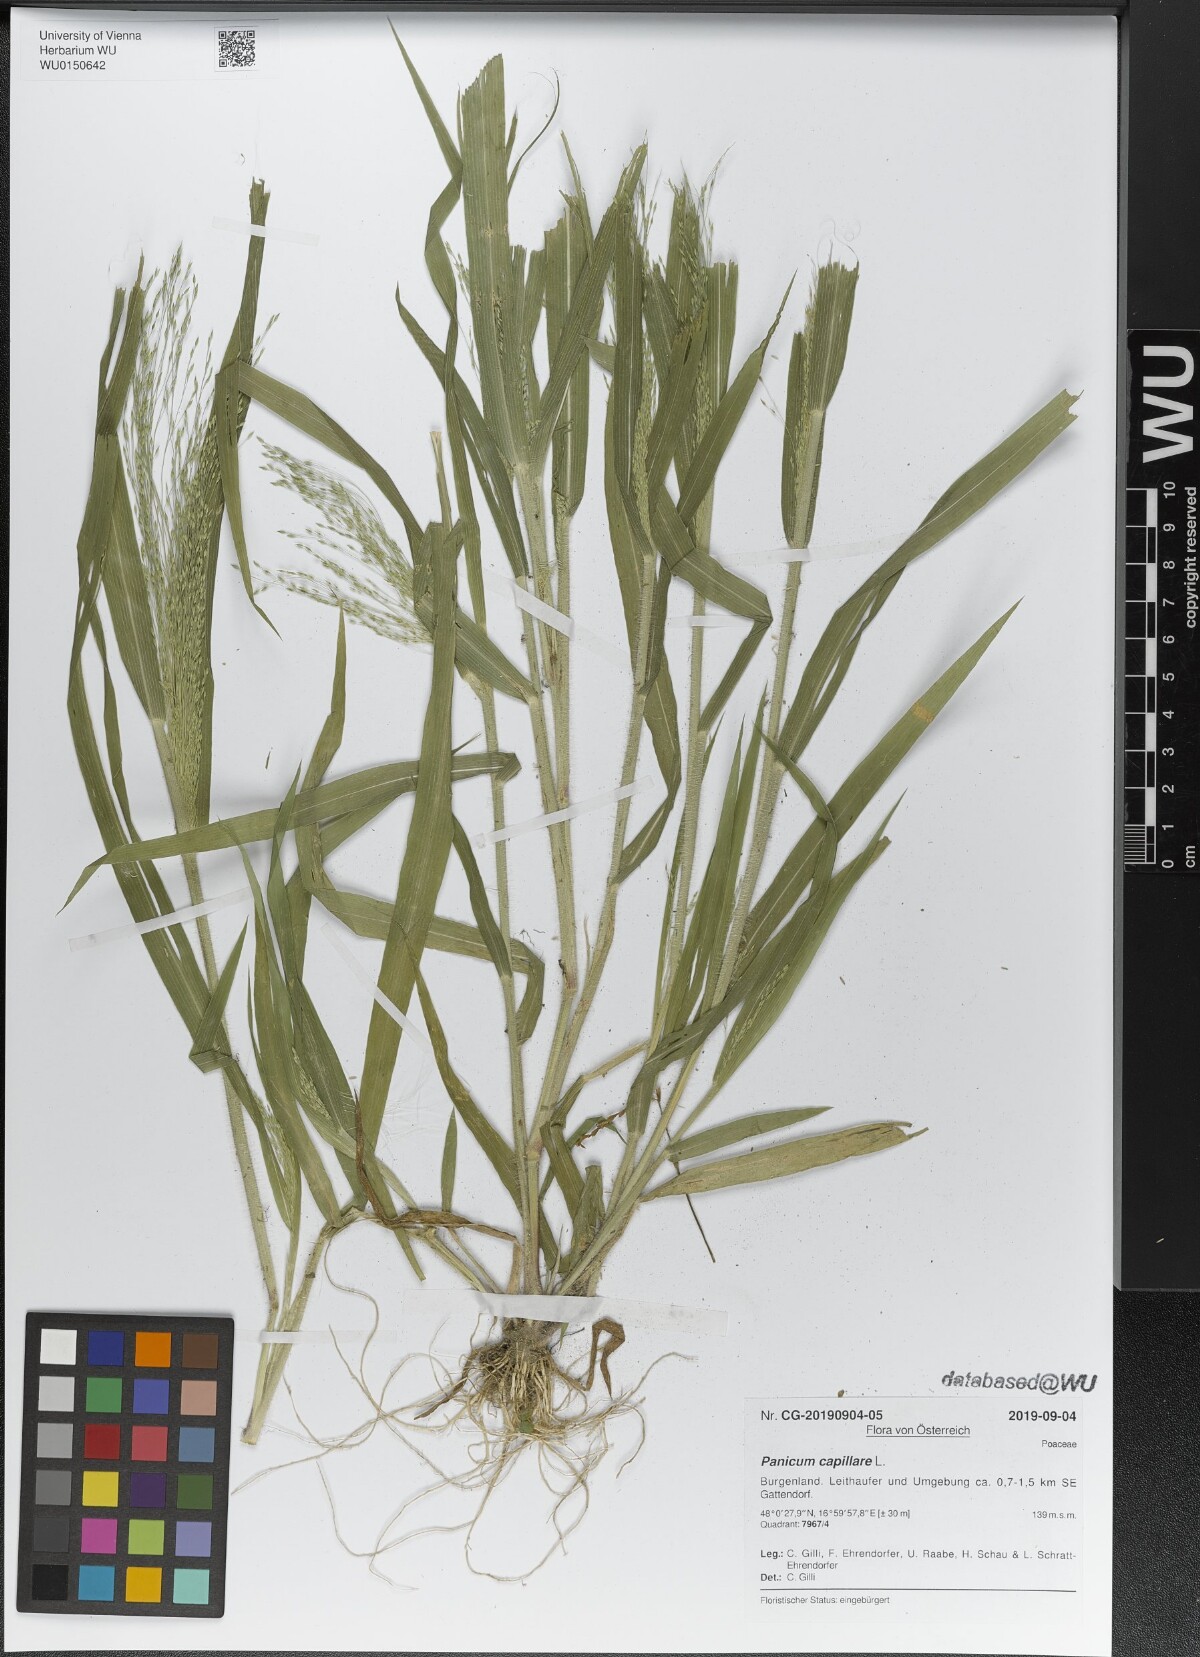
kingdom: Plantae
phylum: Tracheophyta
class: Liliopsida
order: Poales
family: Poaceae
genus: Panicum
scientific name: Panicum capillare
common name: Witch-grass
